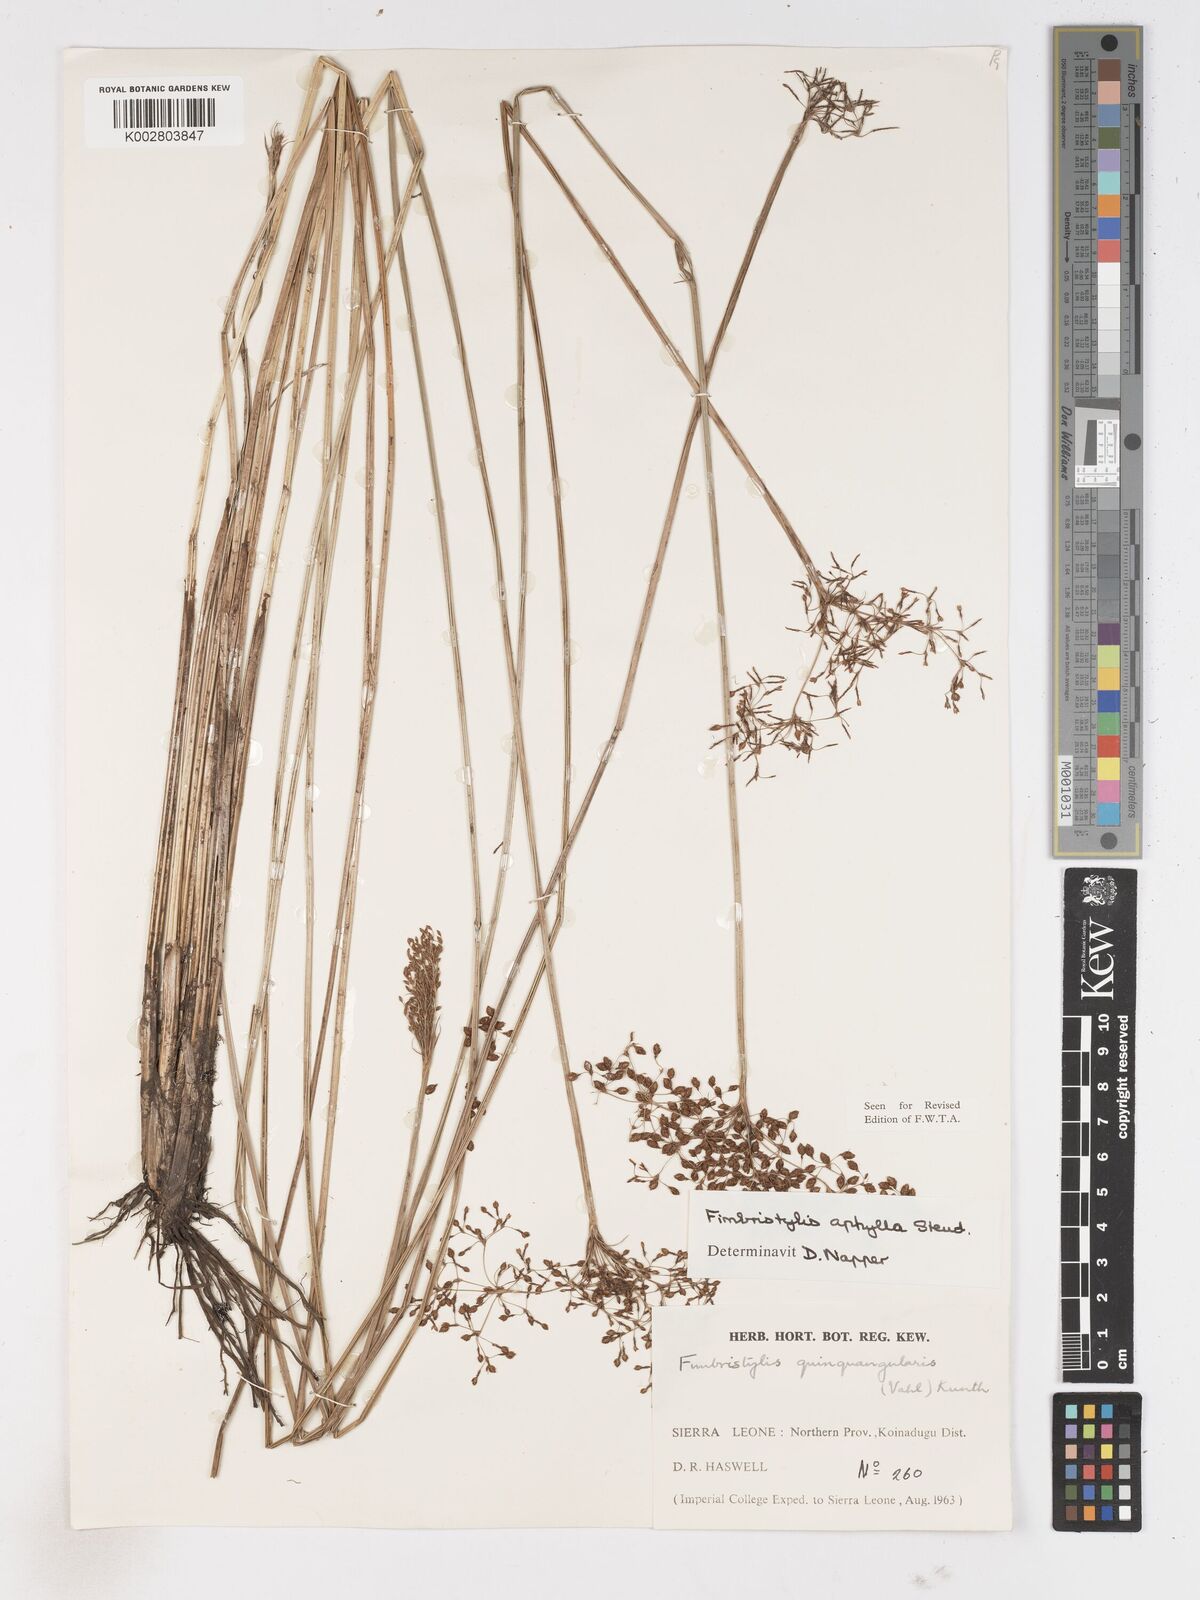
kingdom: Plantae
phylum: Tracheophyta
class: Liliopsida
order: Poales
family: Cyperaceae
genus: Fimbristylis
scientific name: Fimbristylis aphylla
